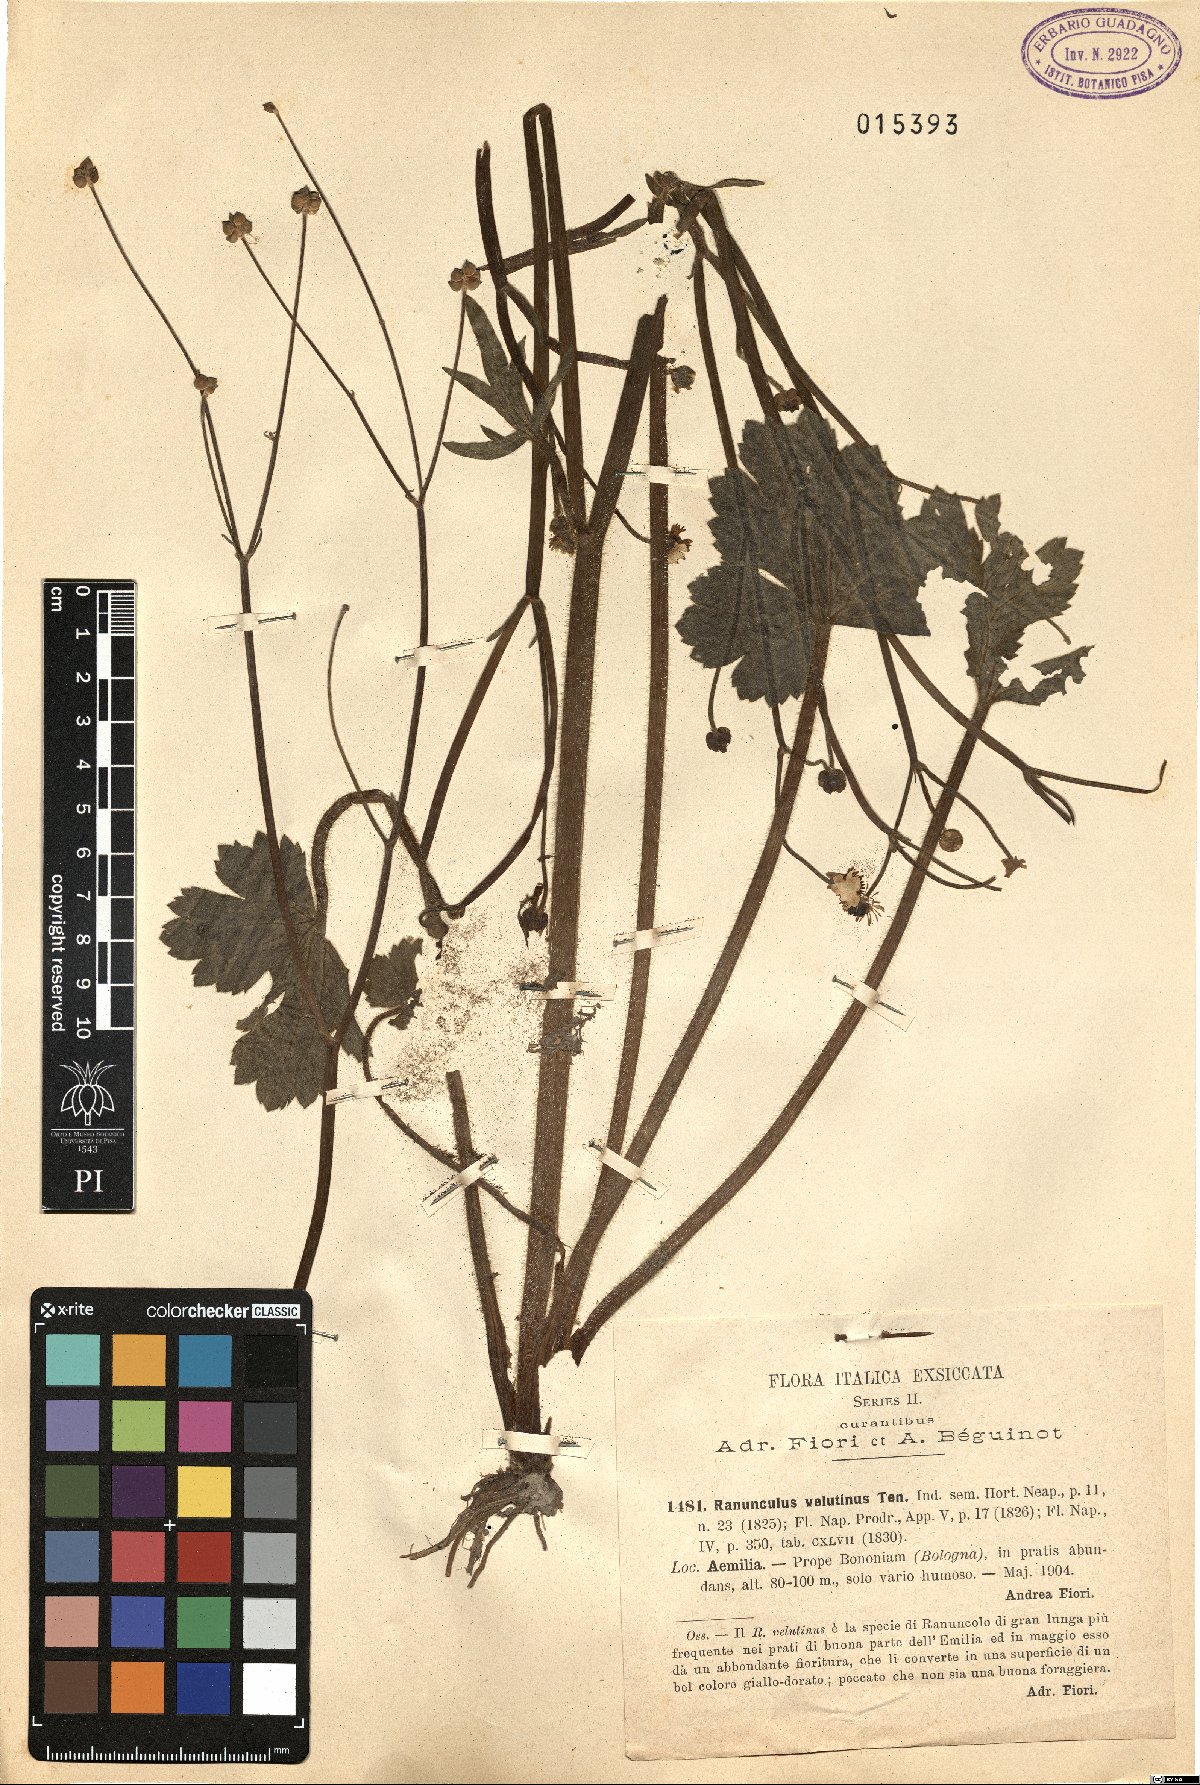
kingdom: Plantae
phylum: Tracheophyta
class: Magnoliopsida
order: Ranunculales
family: Ranunculaceae
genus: Ranunculus
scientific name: Ranunculus velutinus
